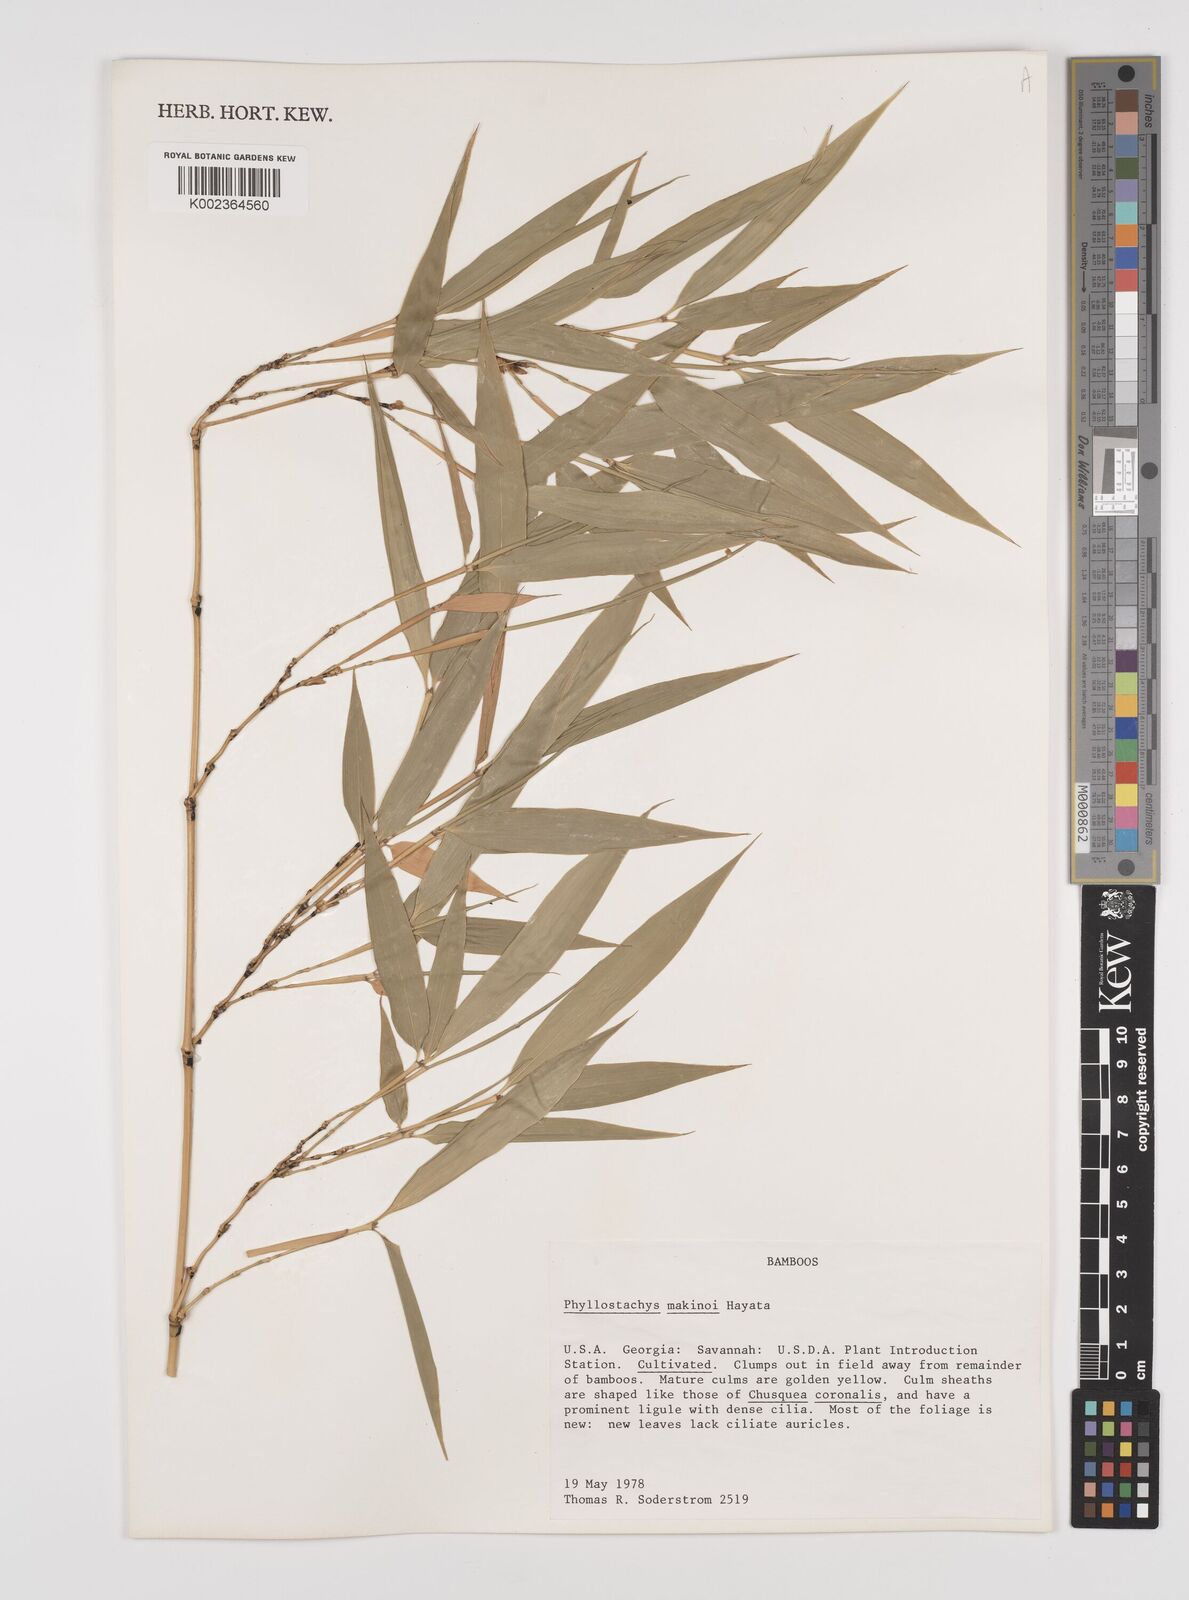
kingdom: Plantae
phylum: Tracheophyta
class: Liliopsida
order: Poales
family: Poaceae
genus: Phyllostachys
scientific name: Phyllostachys makinoi
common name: Makino bamboo
